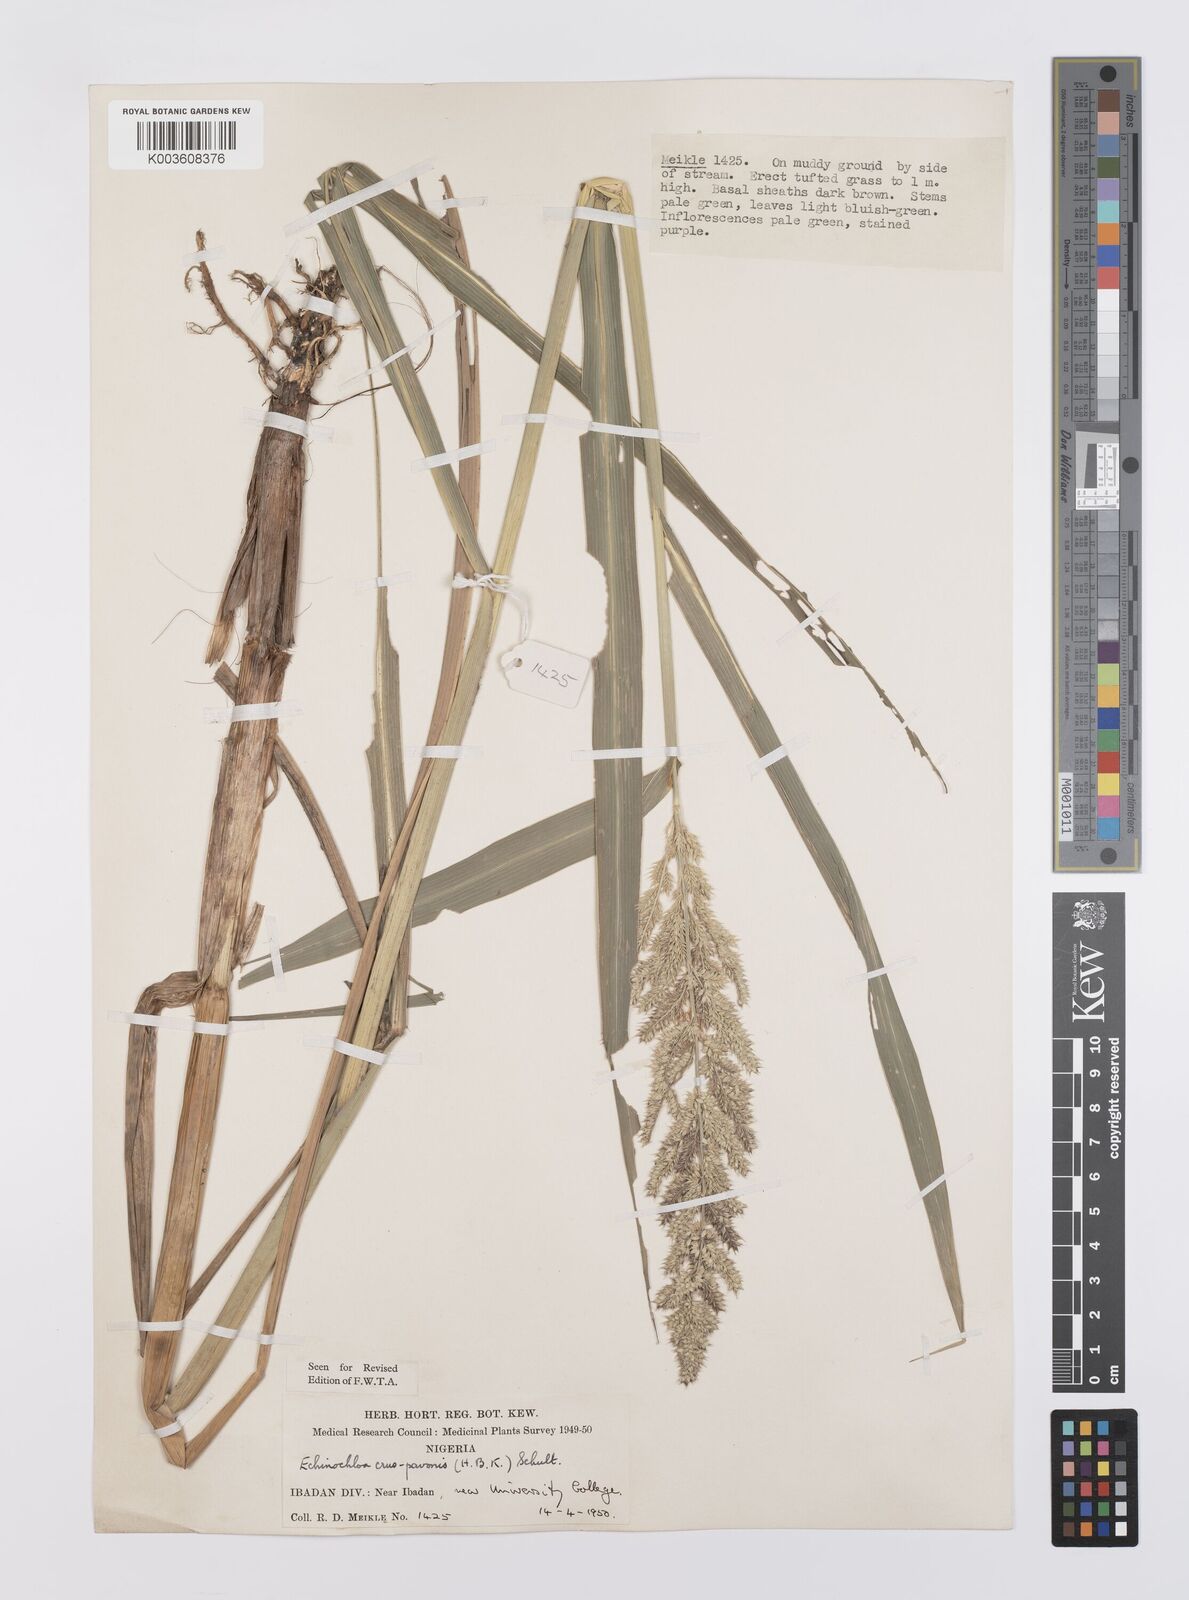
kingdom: Plantae
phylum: Tracheophyta
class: Liliopsida
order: Poales
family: Poaceae
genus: Echinochloa
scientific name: Echinochloa crus-pavonis
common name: Gulf cockspur grass
